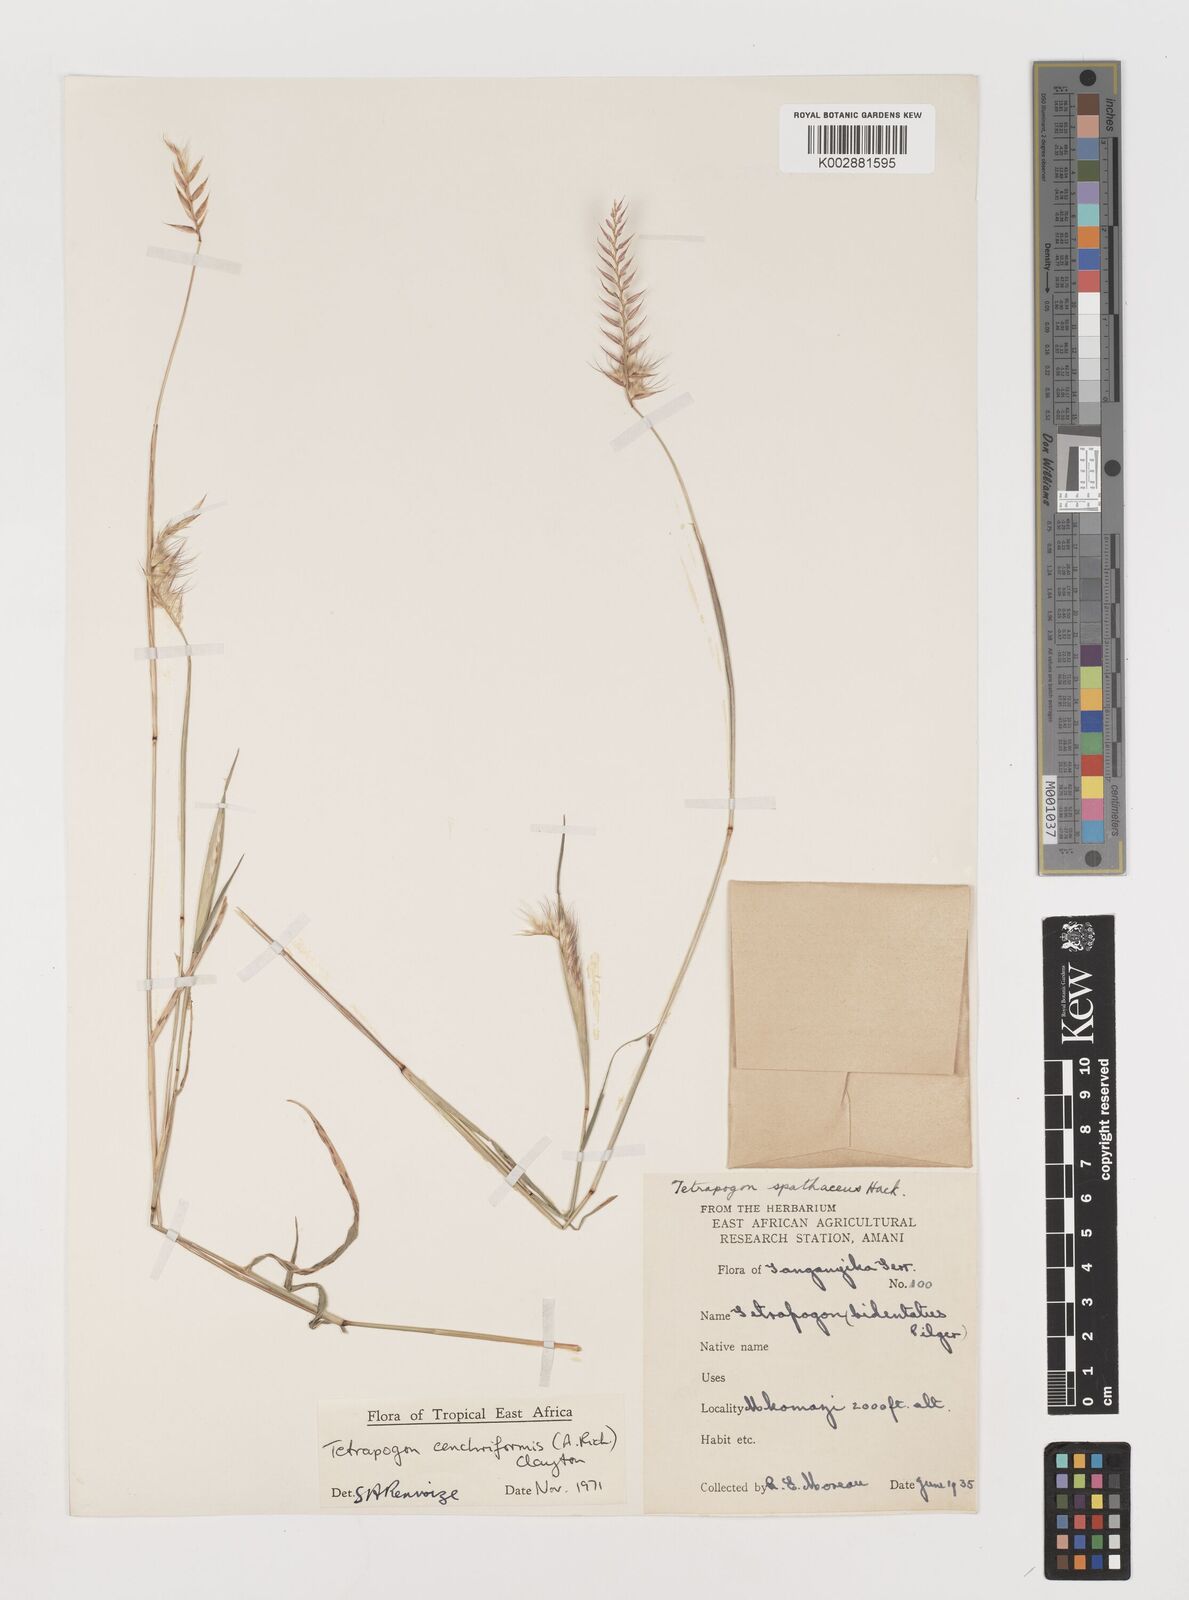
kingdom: Plantae
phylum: Tracheophyta
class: Liliopsida
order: Poales
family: Poaceae
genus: Tetrapogon
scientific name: Tetrapogon cenchriformis
